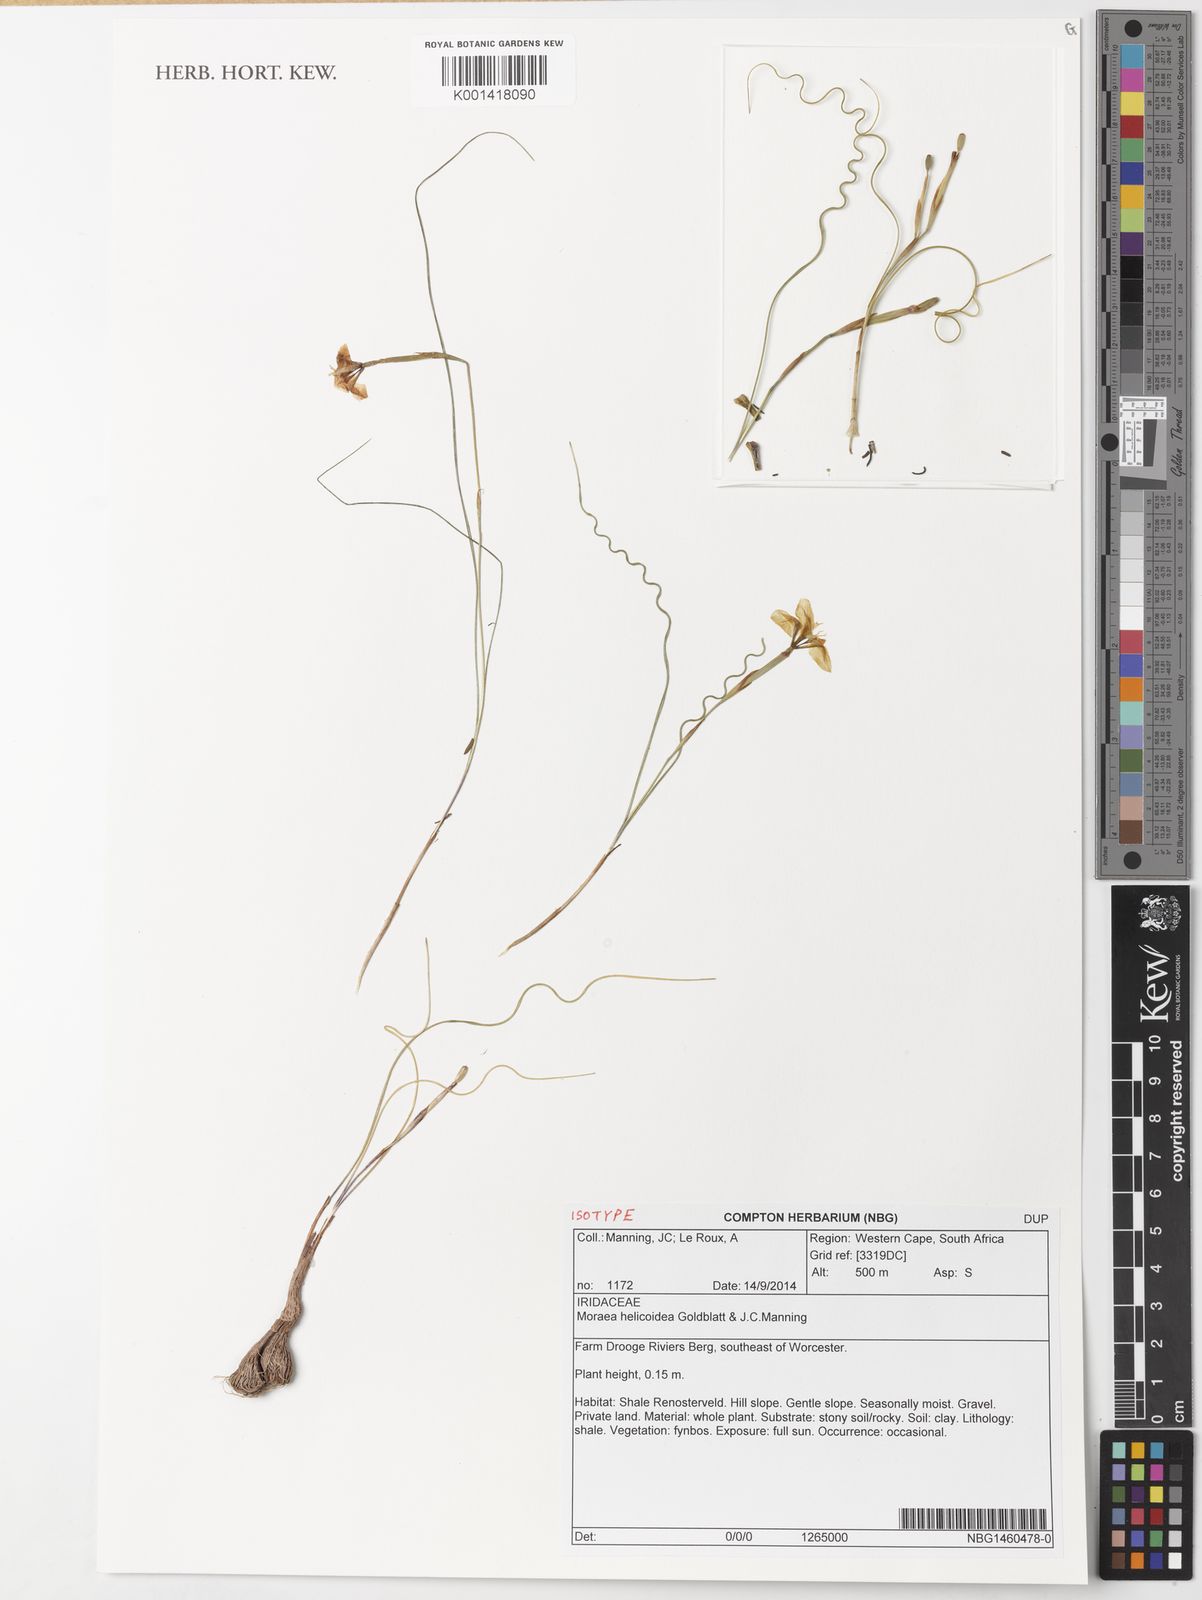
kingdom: Plantae
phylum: Tracheophyta
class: Liliopsida
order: Asparagales
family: Iridaceae
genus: Moraea
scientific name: Moraea helicoidea
